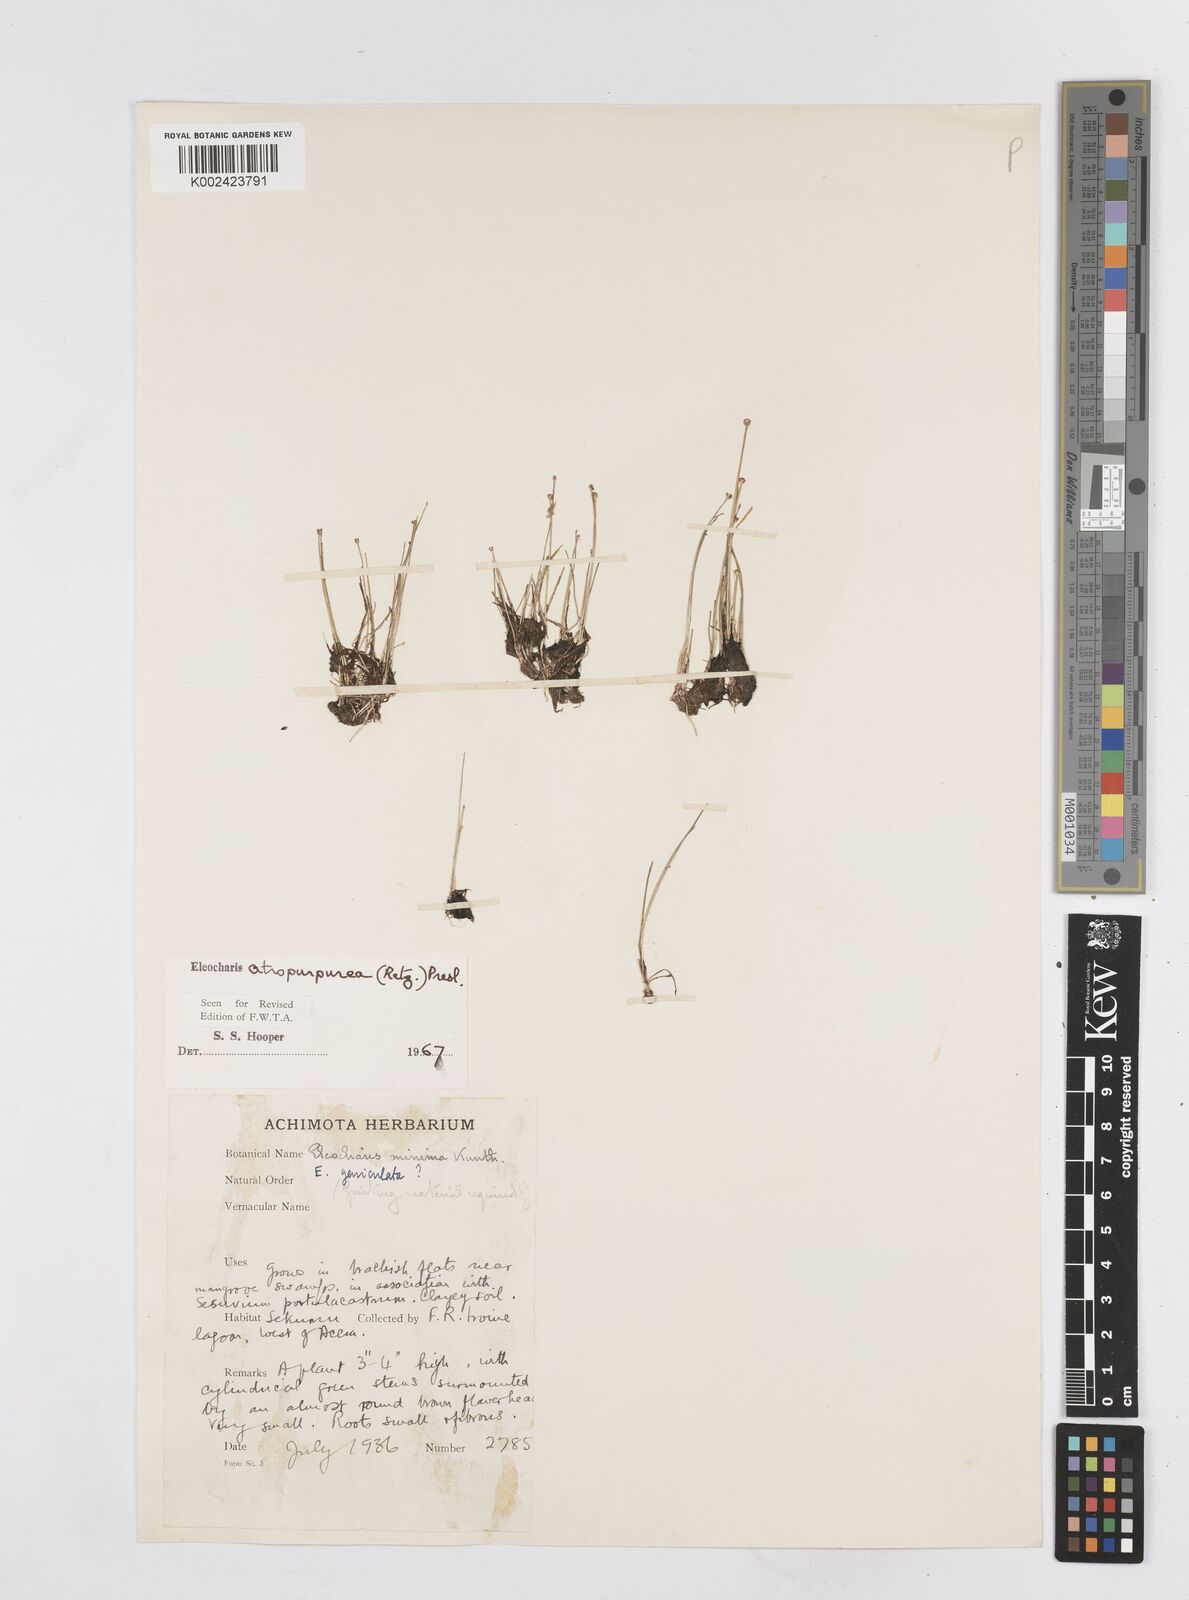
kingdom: Plantae
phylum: Tracheophyta
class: Liliopsida
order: Poales
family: Cyperaceae
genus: Eleocharis
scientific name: Eleocharis atropurpurea
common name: Purple spikerush
